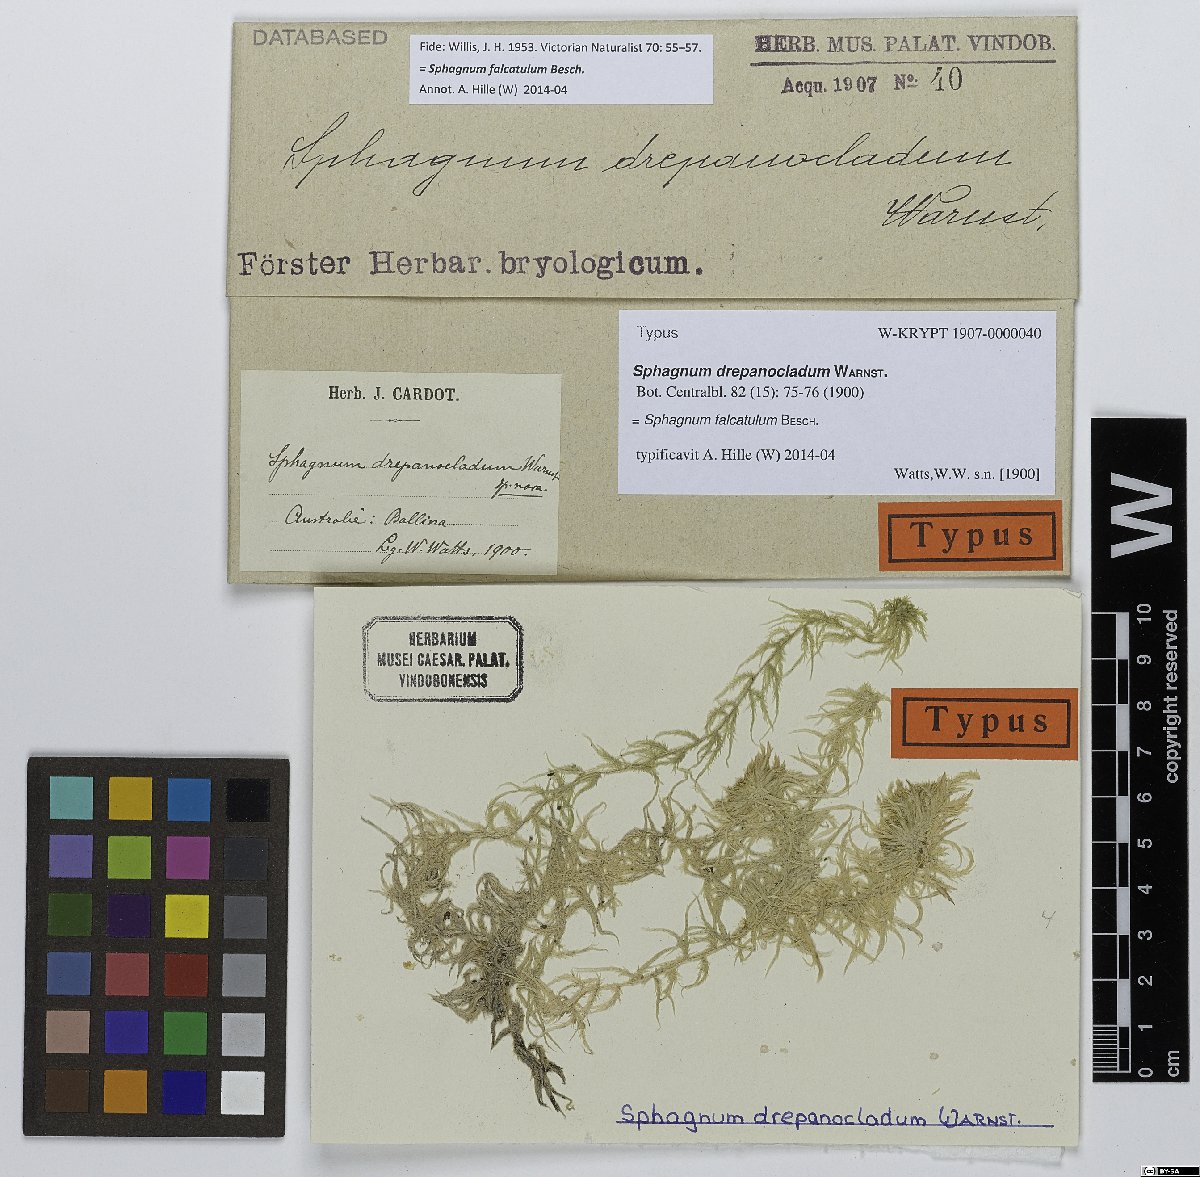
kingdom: Plantae
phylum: Bryophyta
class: Sphagnopsida
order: Sphagnales
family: Sphagnaceae
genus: Sphagnum
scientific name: Sphagnum falcatulum
